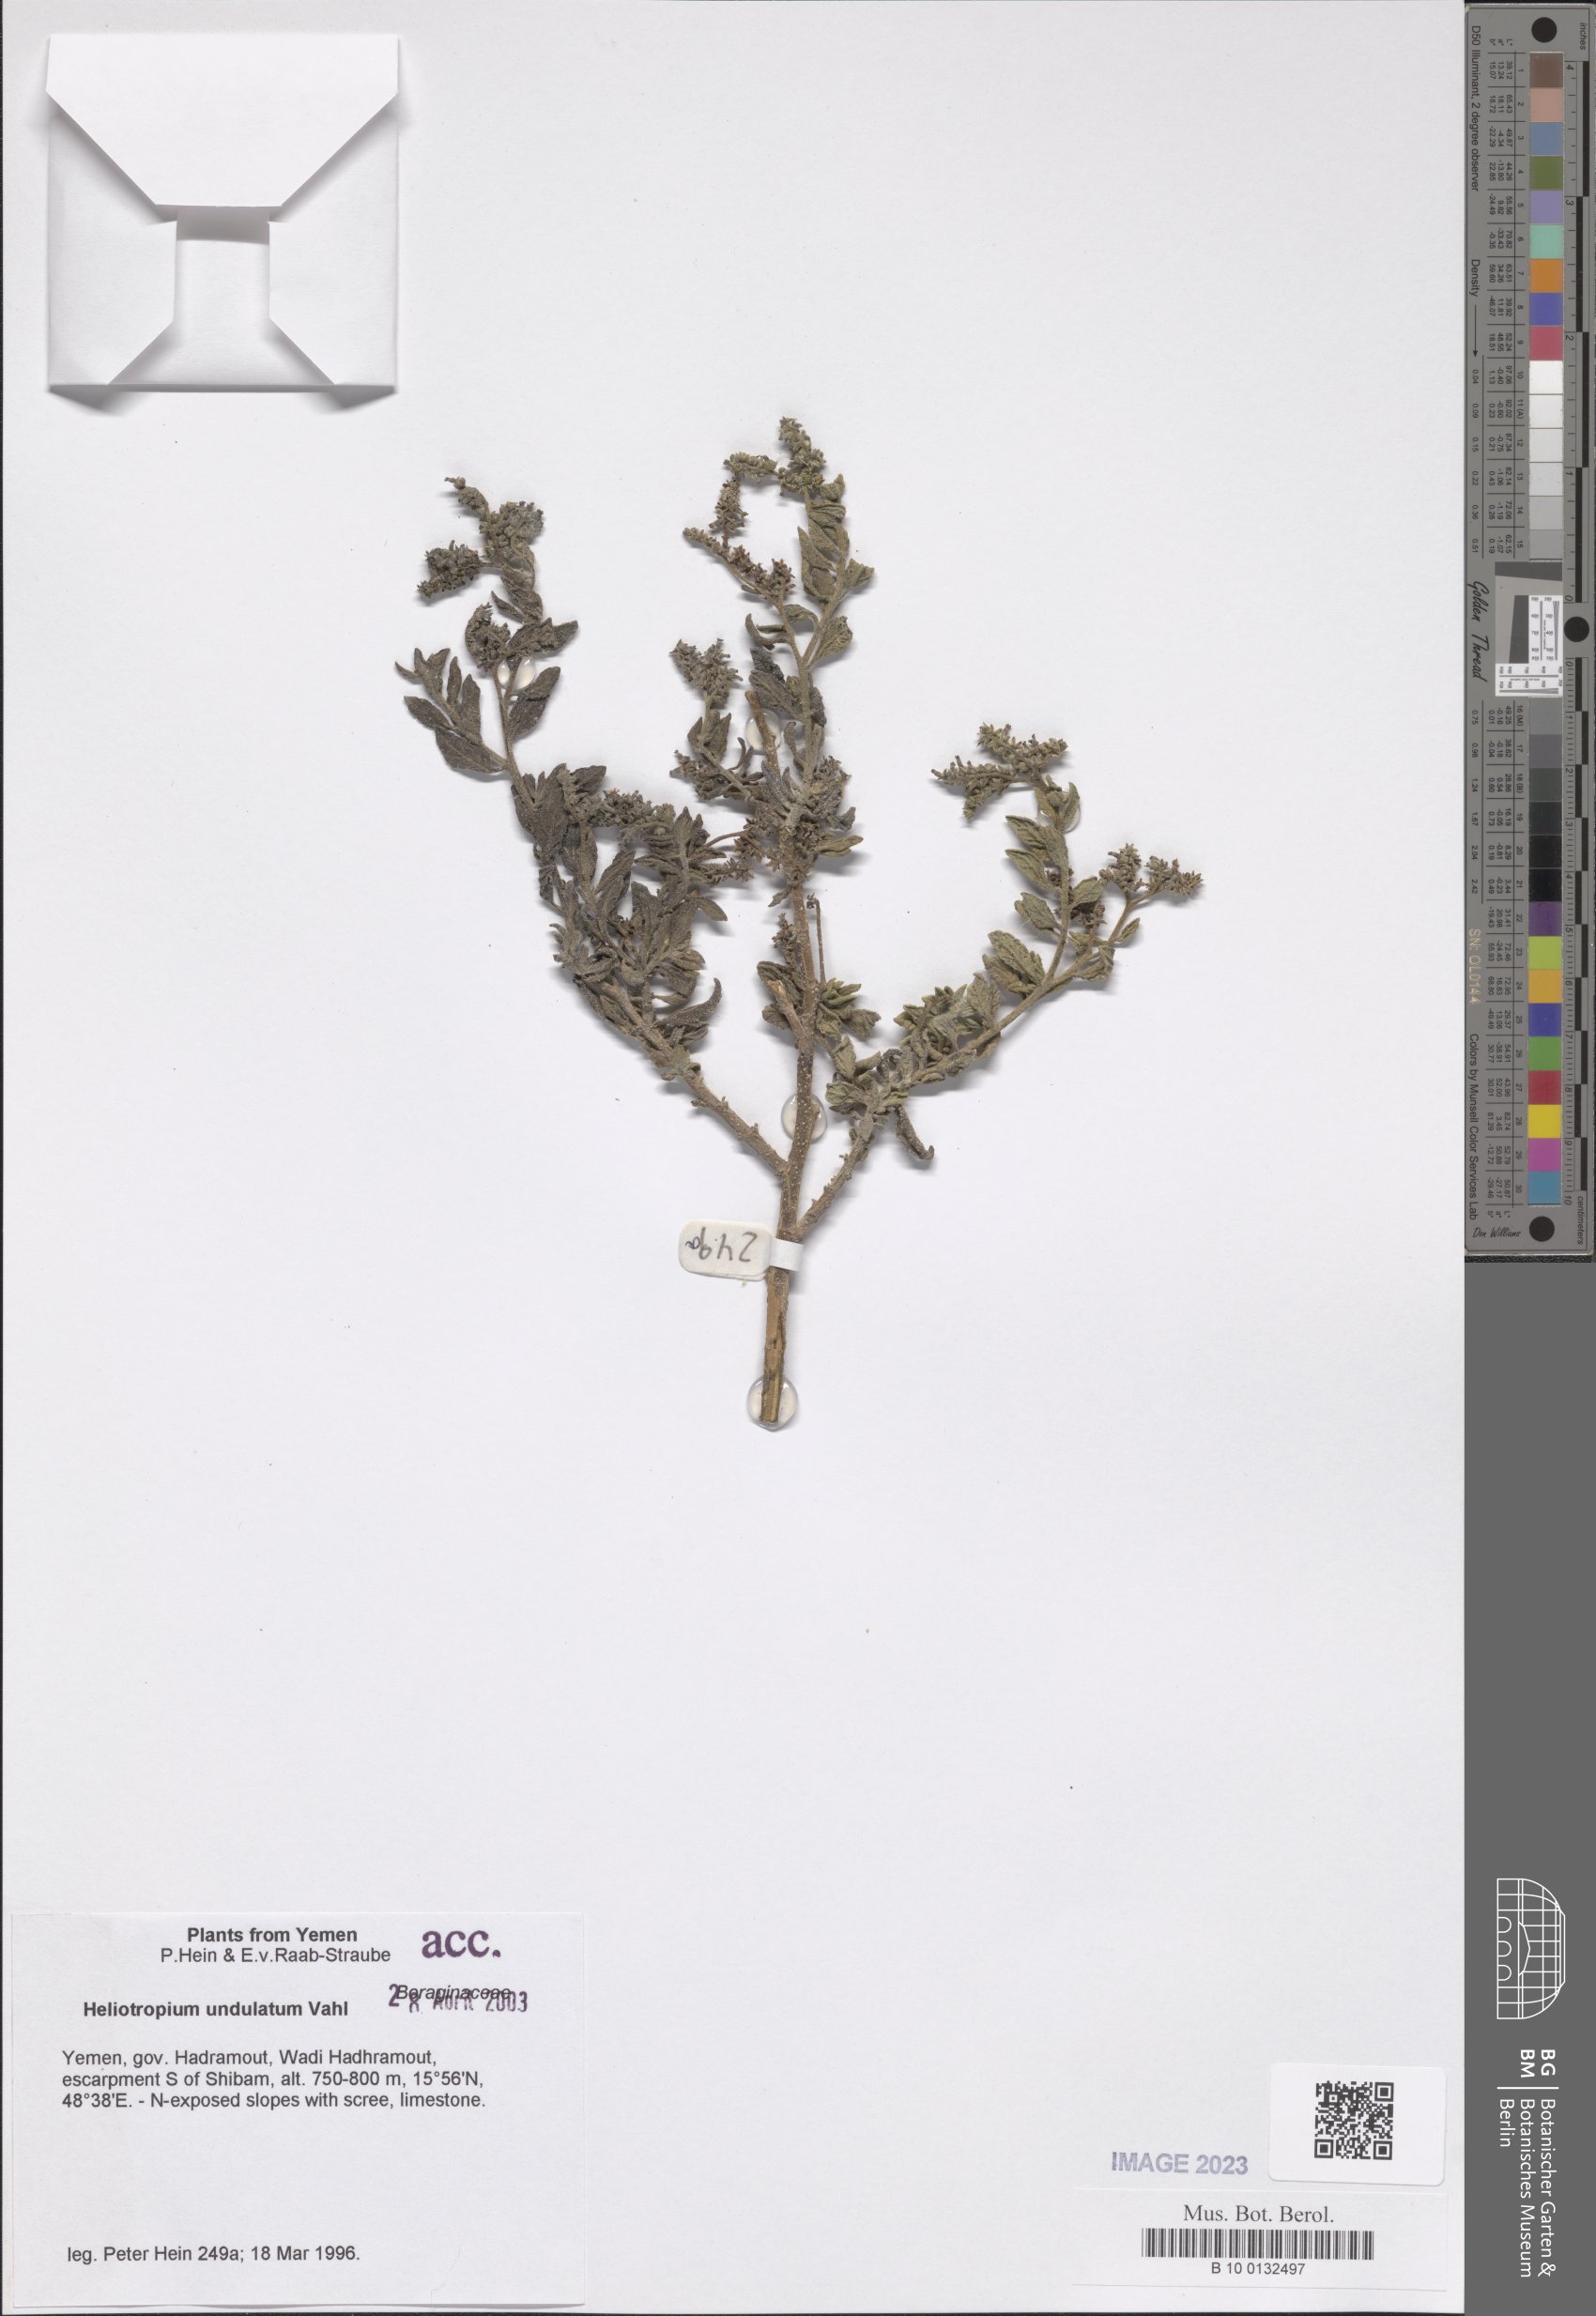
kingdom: Plantae
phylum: Tracheophyta
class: Magnoliopsida
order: Boraginales
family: Heliotropiaceae
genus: Heliotropium
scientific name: Heliotropium bacciferum
